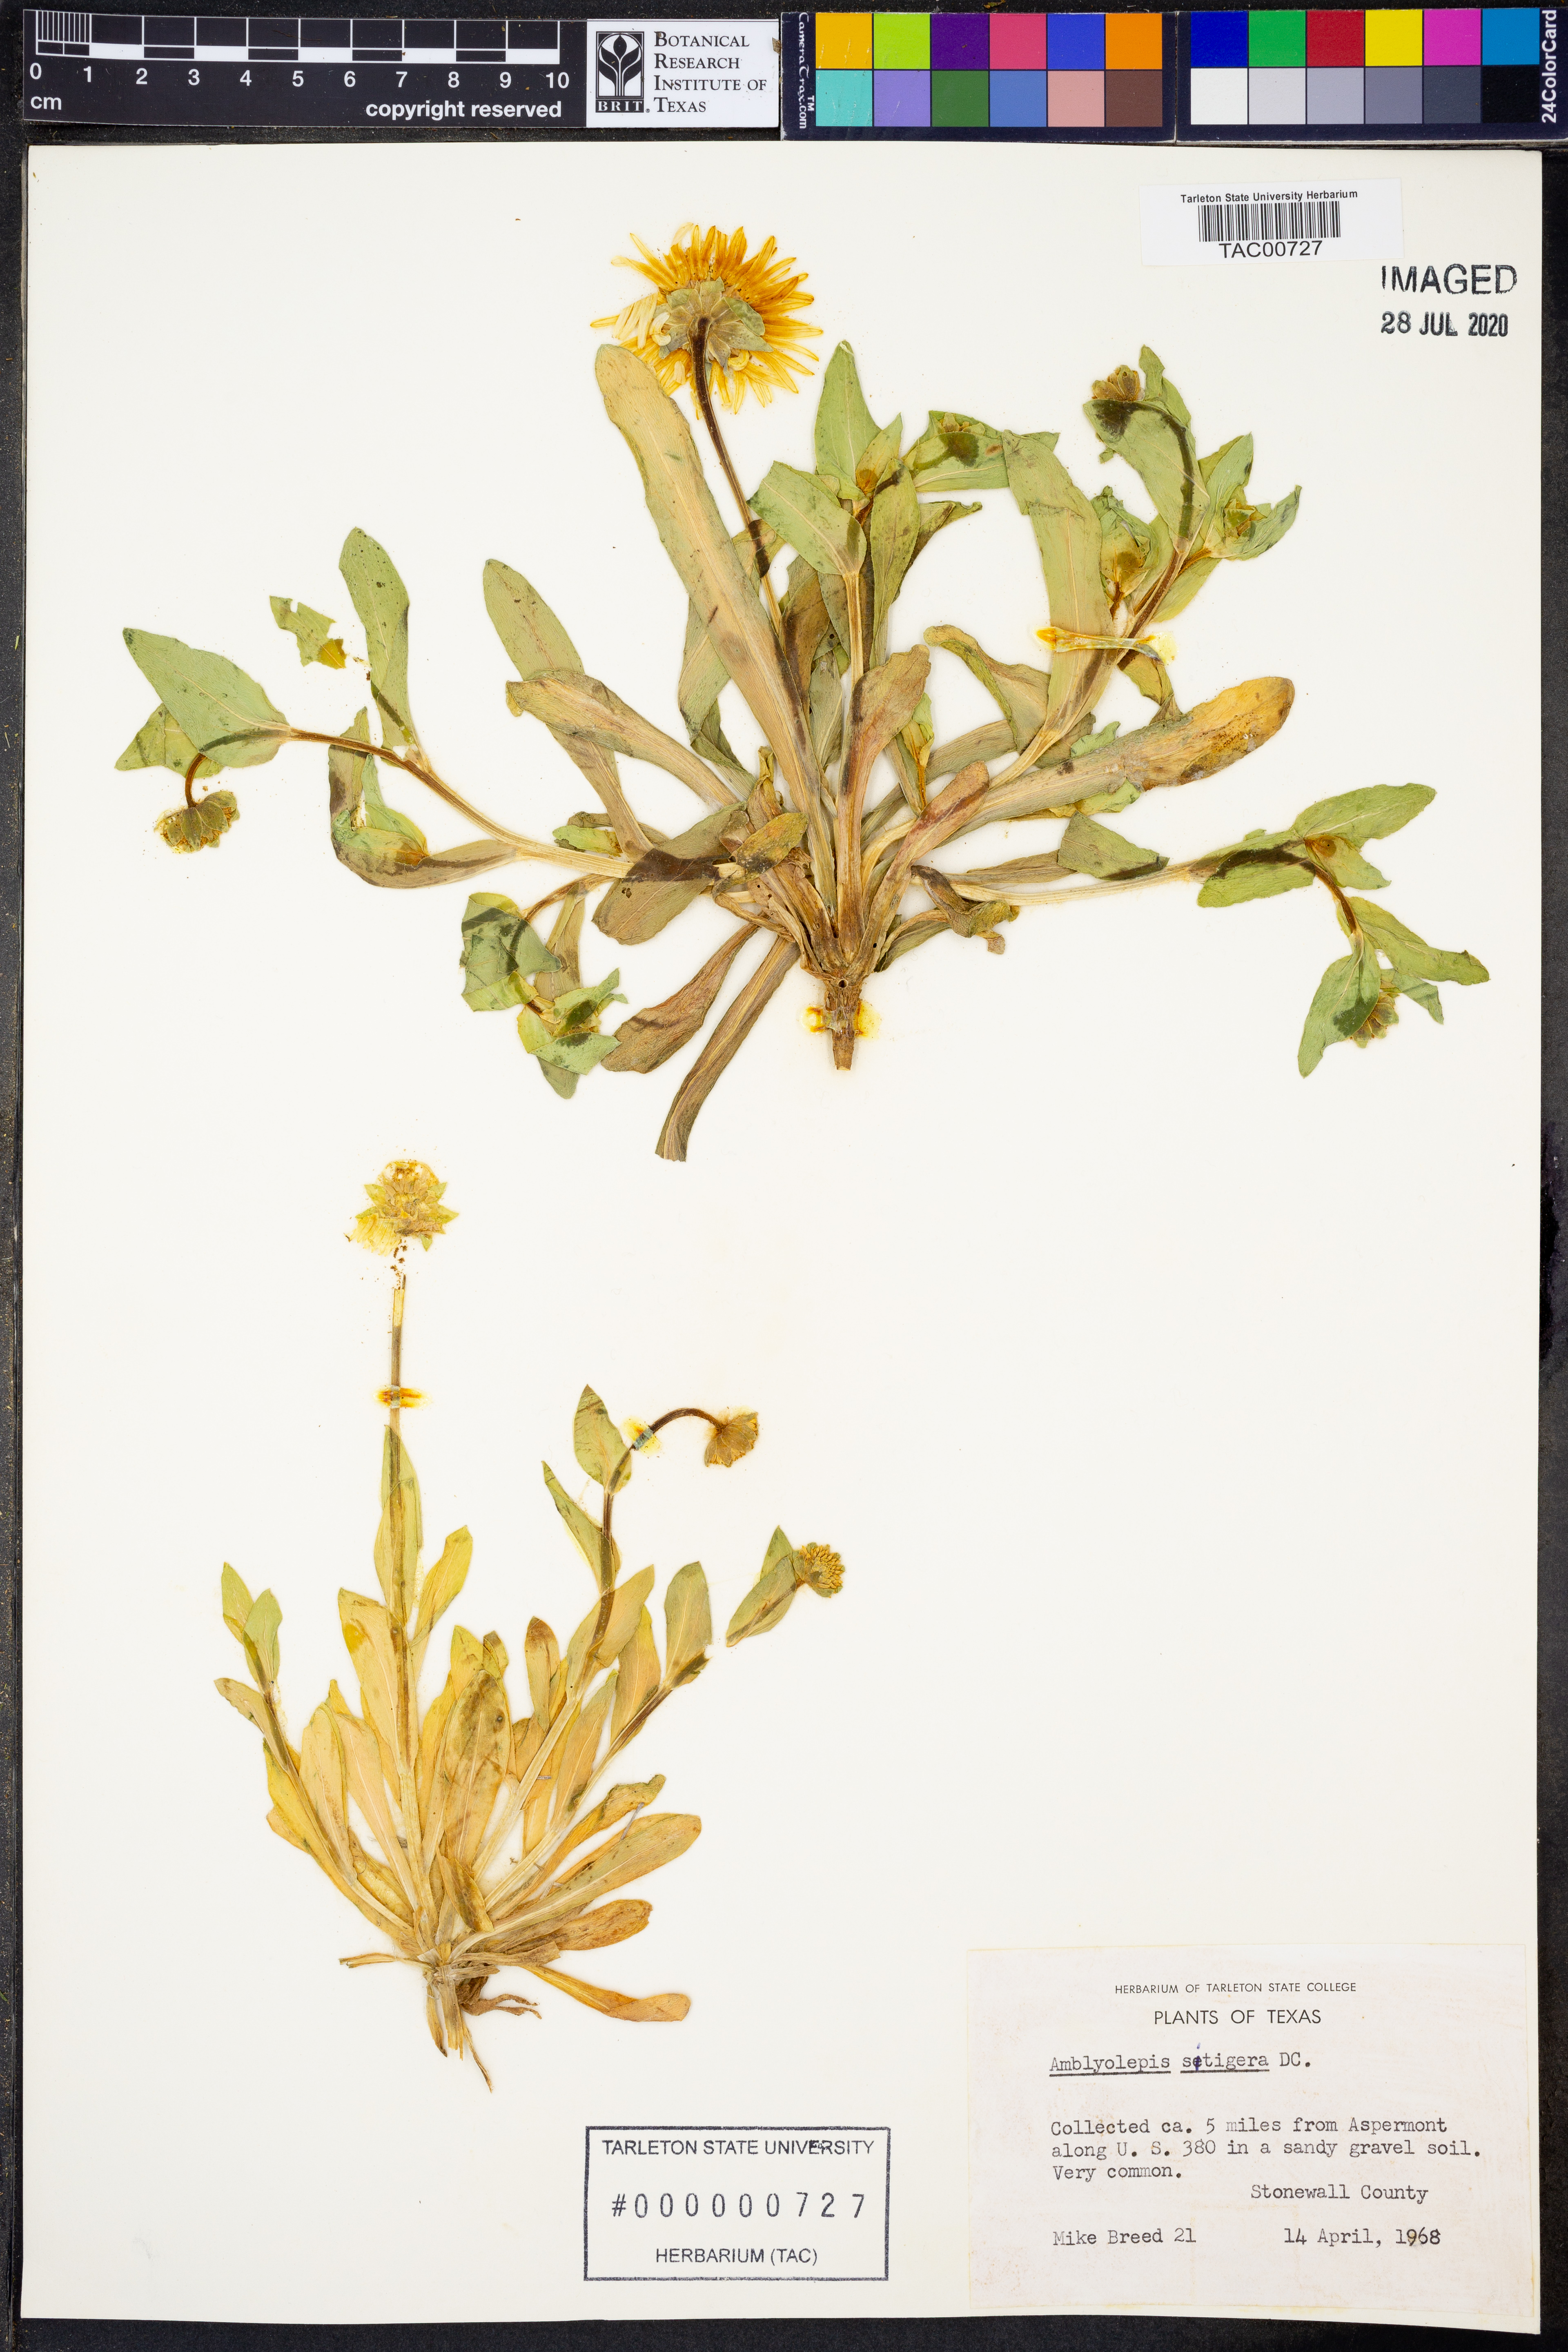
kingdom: Plantae
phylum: Tracheophyta
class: Magnoliopsida
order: Asterales
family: Asteraceae
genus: Amblyolepis
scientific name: Amblyolepis setigera
